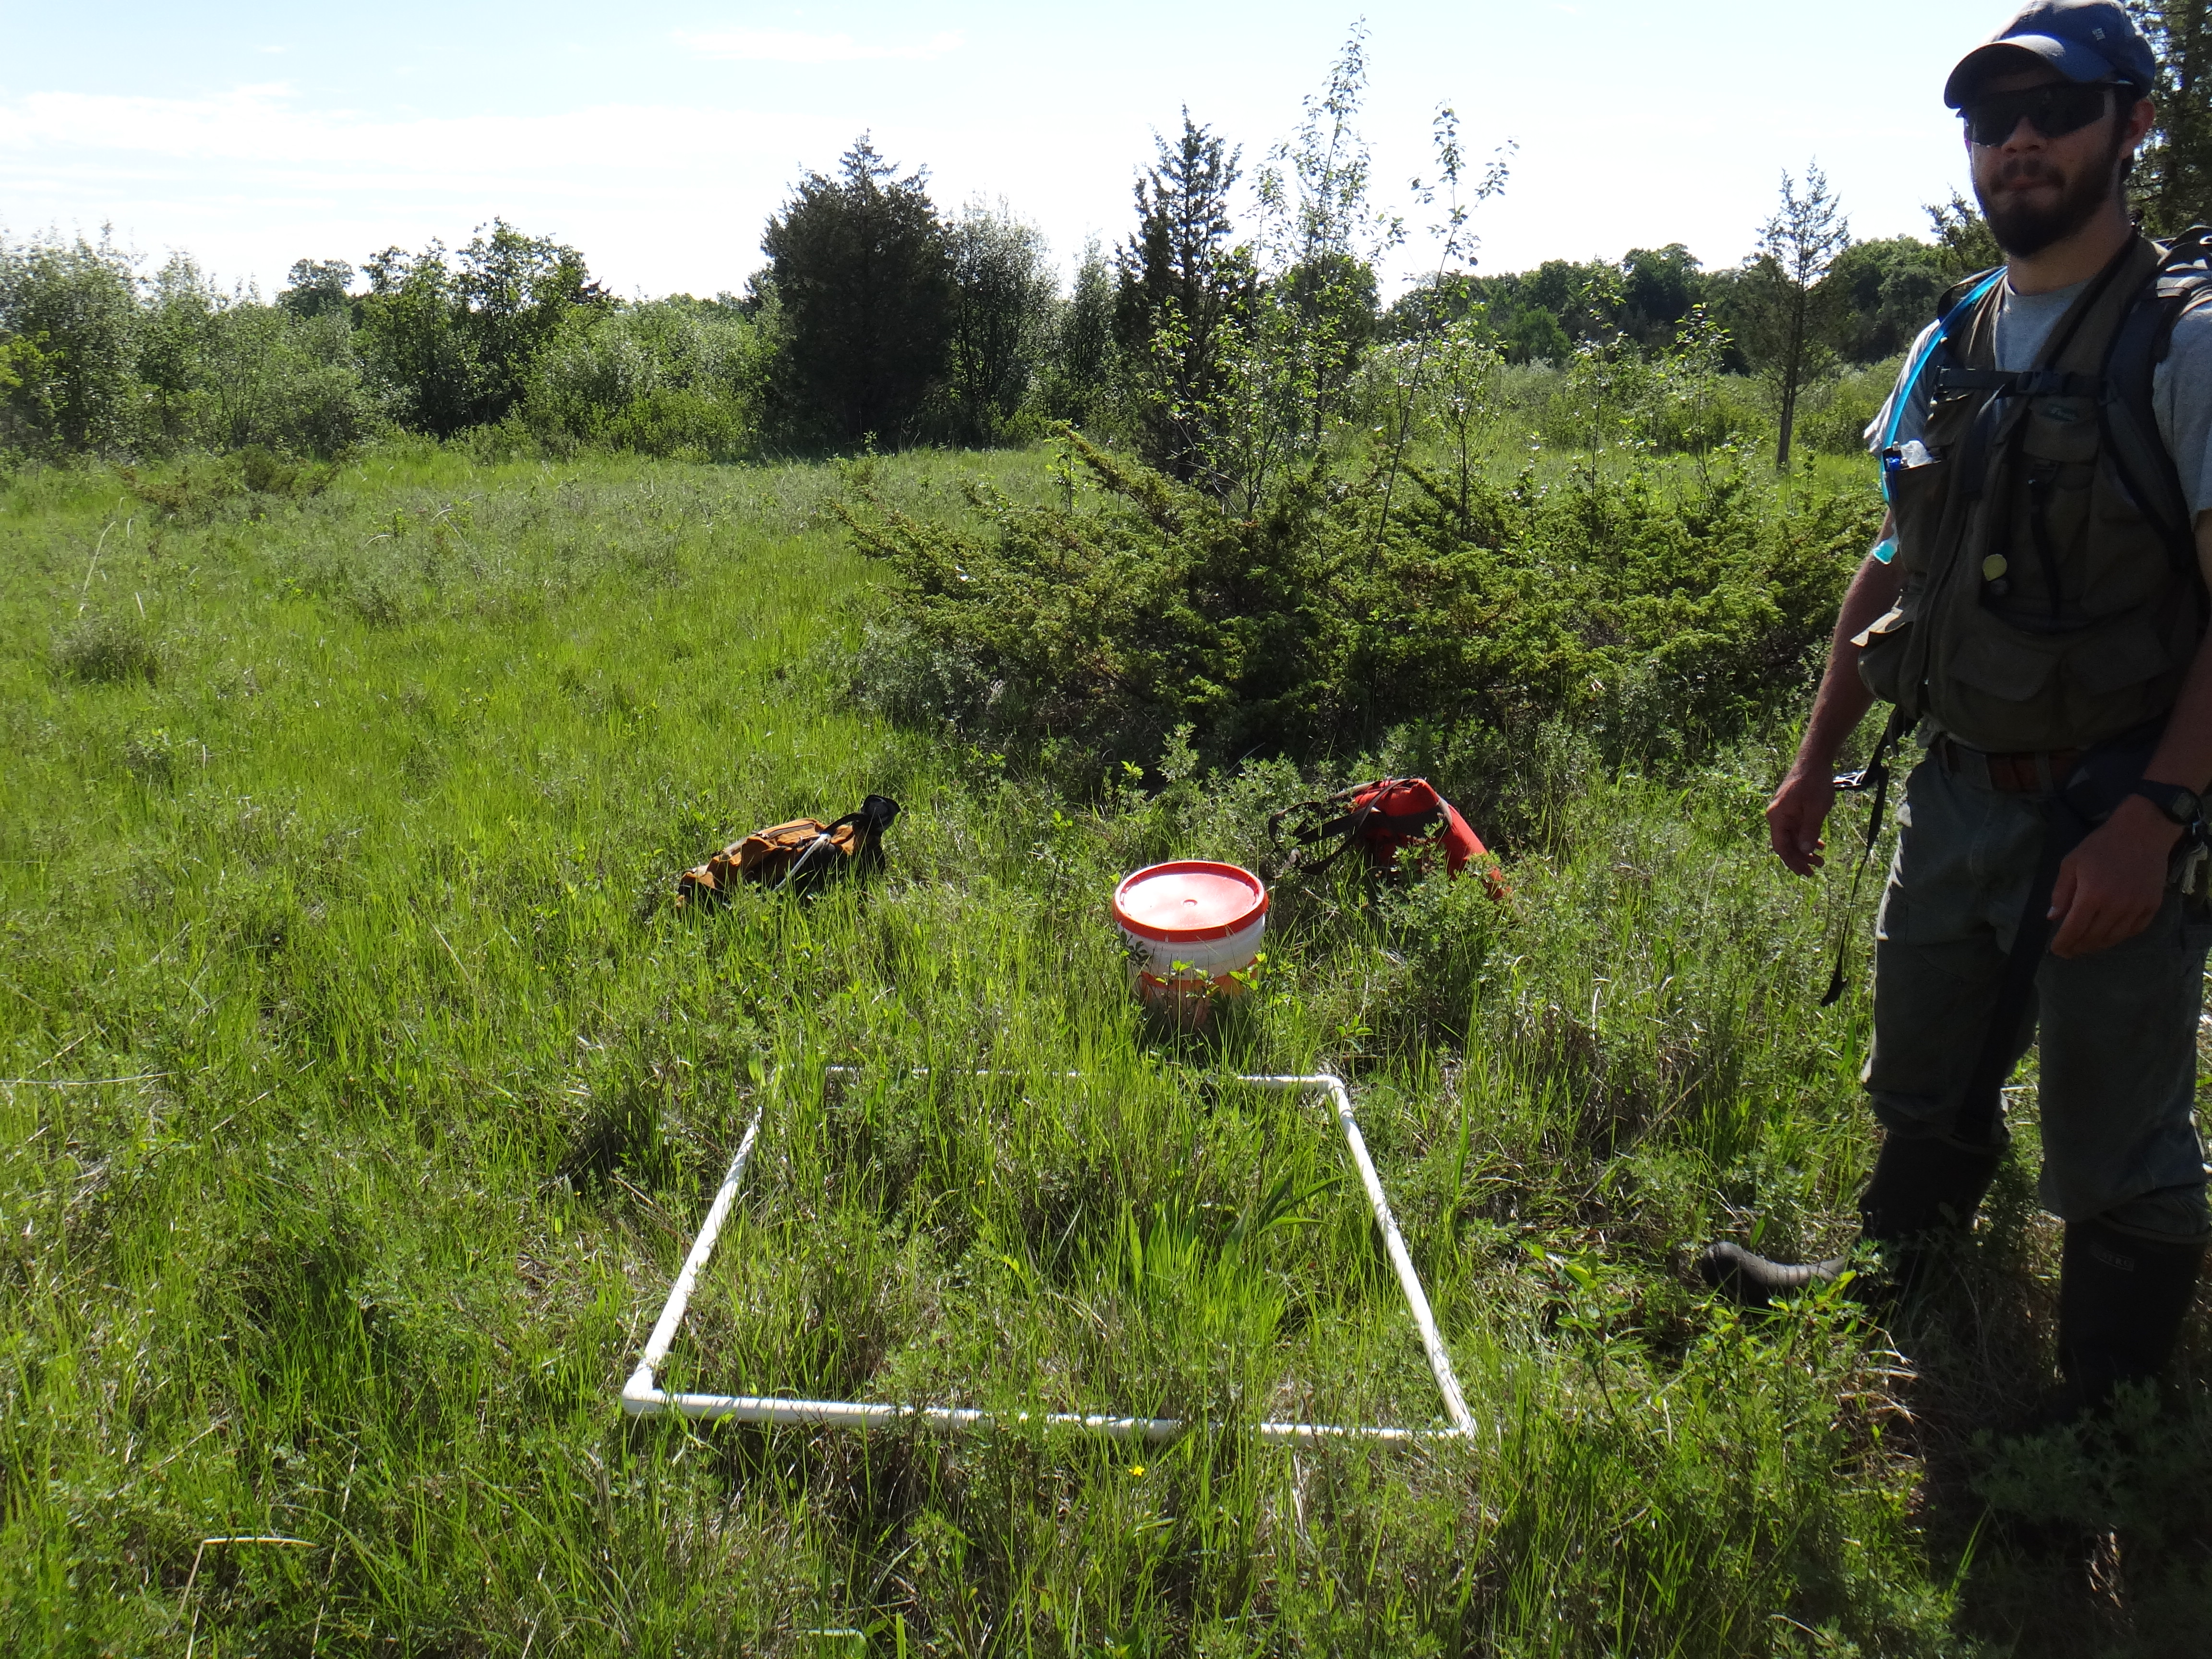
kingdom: Plantae
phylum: Tracheophyta
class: Magnoliopsida
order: Asterales
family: Asteraceae
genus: Rudbeckia
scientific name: Rudbeckia hirta
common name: Black-eyed-susan
